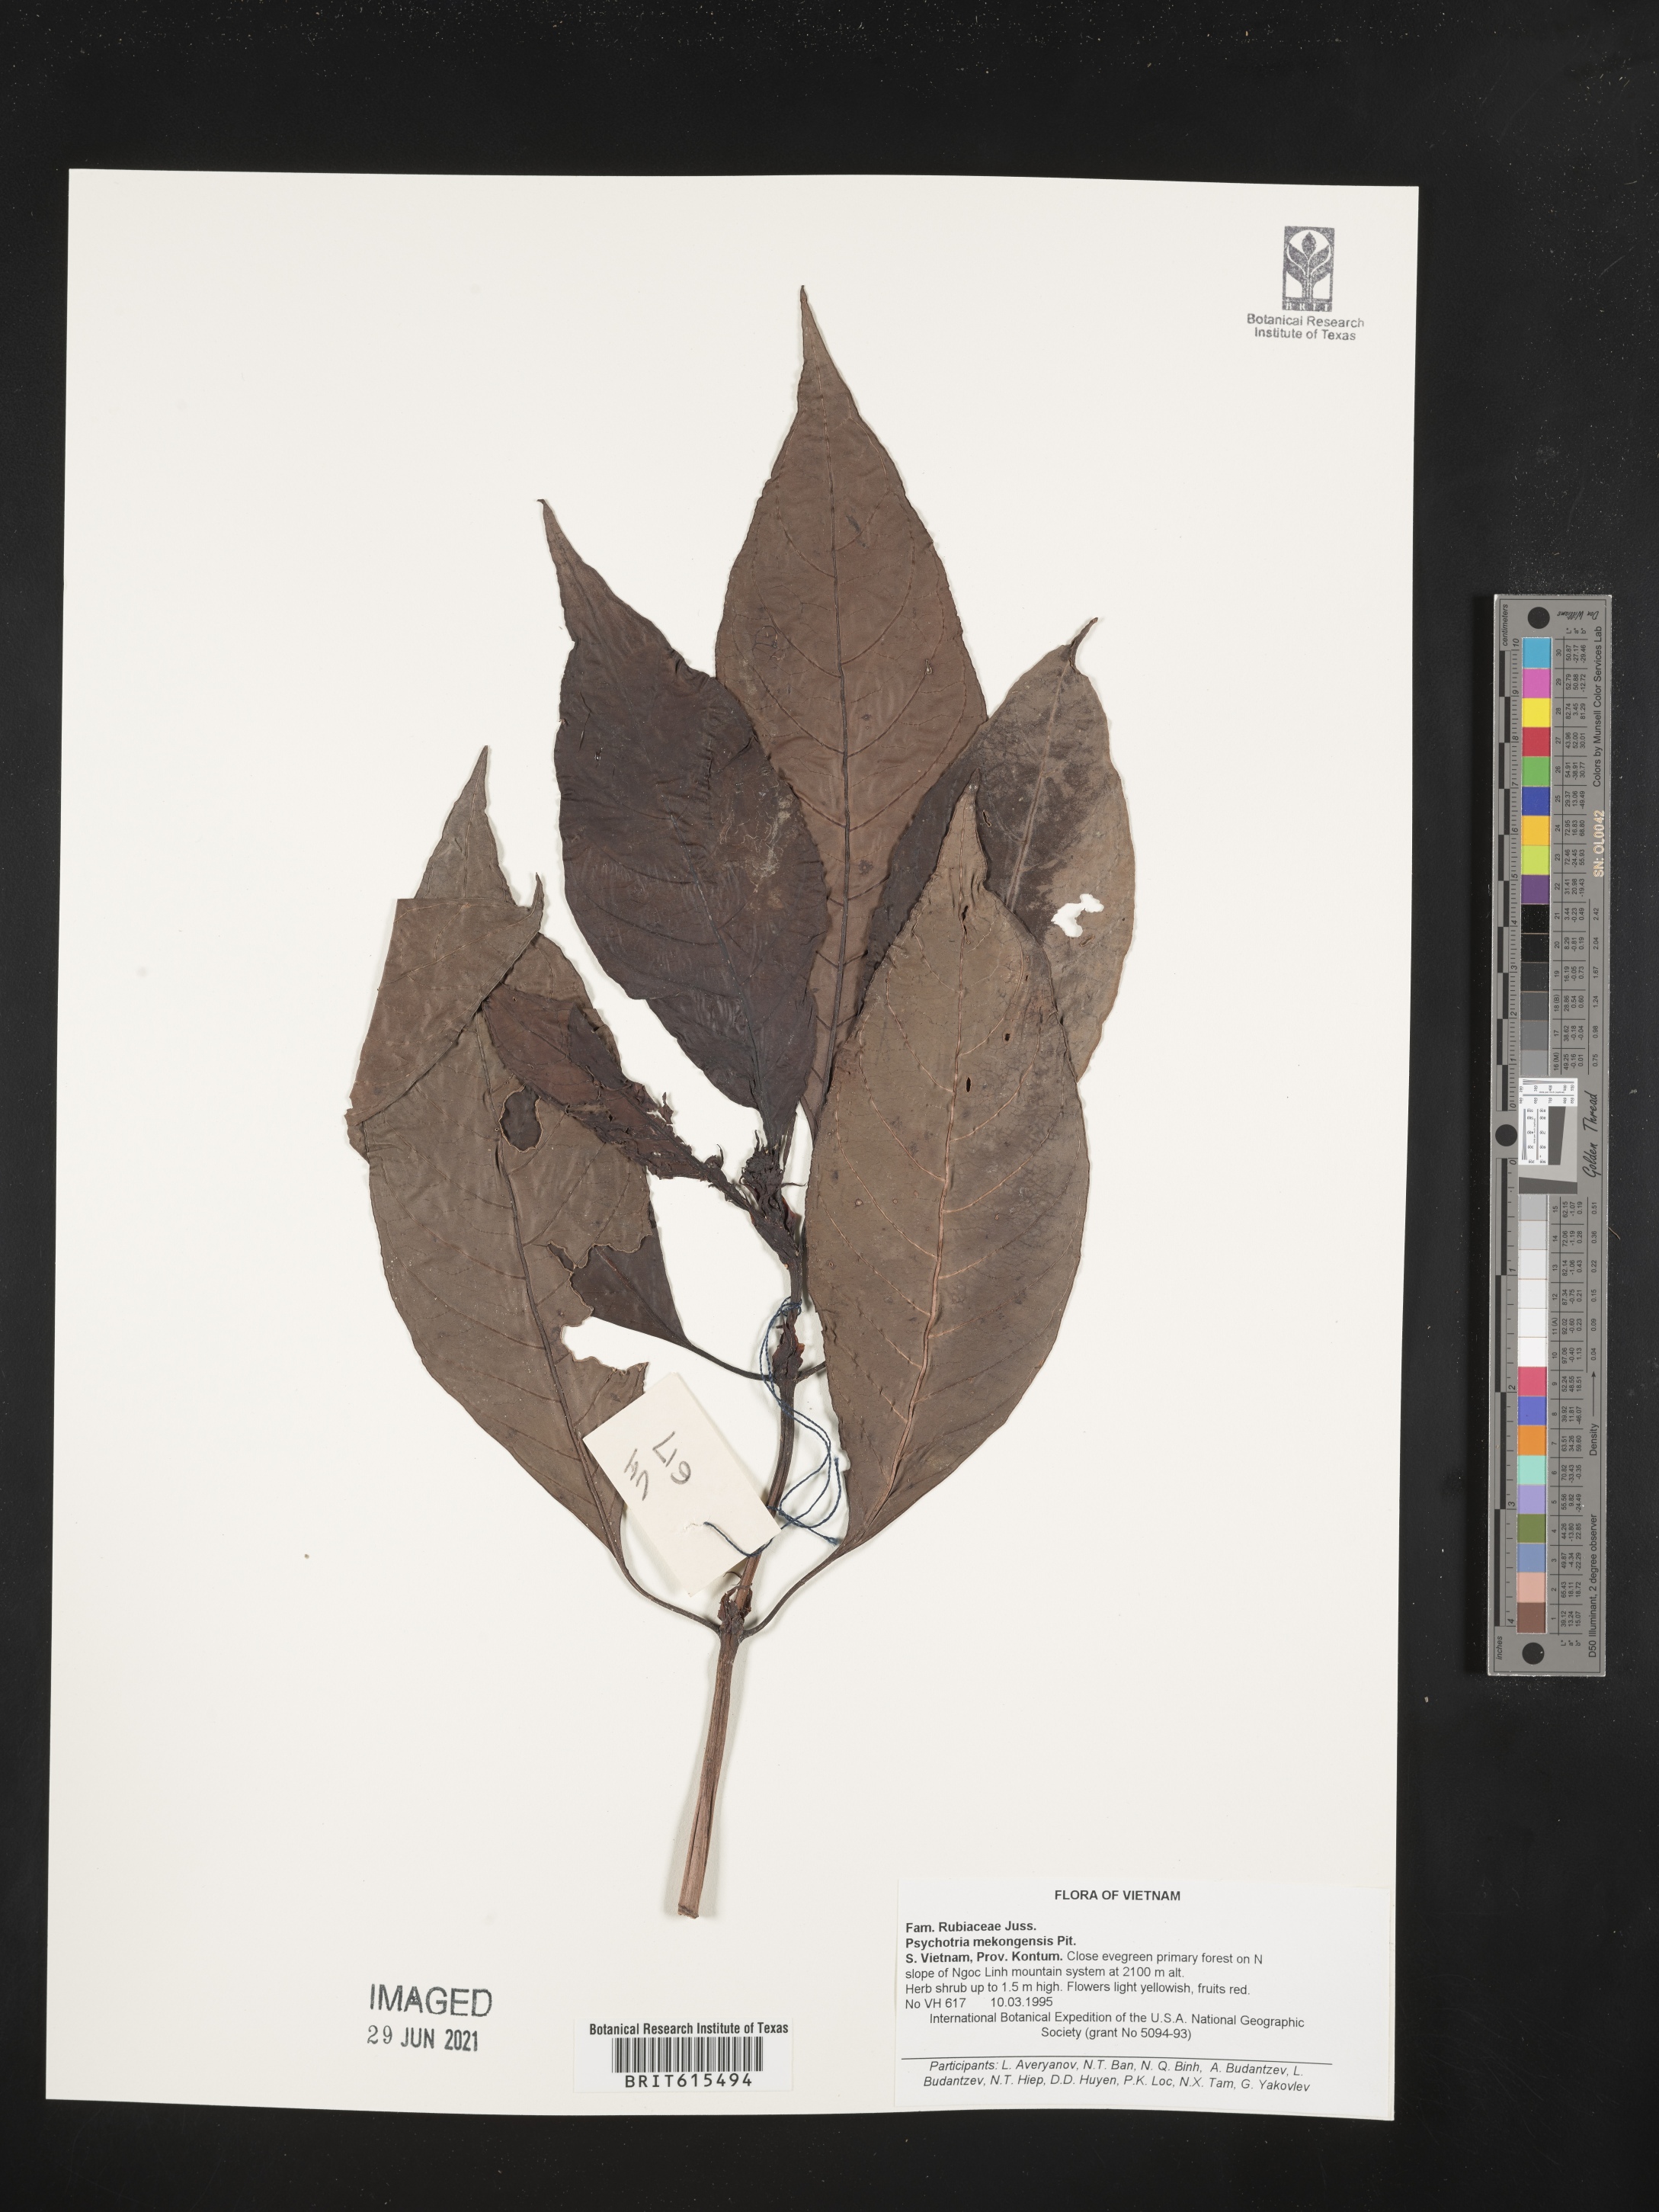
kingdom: Plantae
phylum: Tracheophyta
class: Magnoliopsida
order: Gentianales
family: Rubiaceae
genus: Psychotria
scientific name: Psychotria mekongensis
